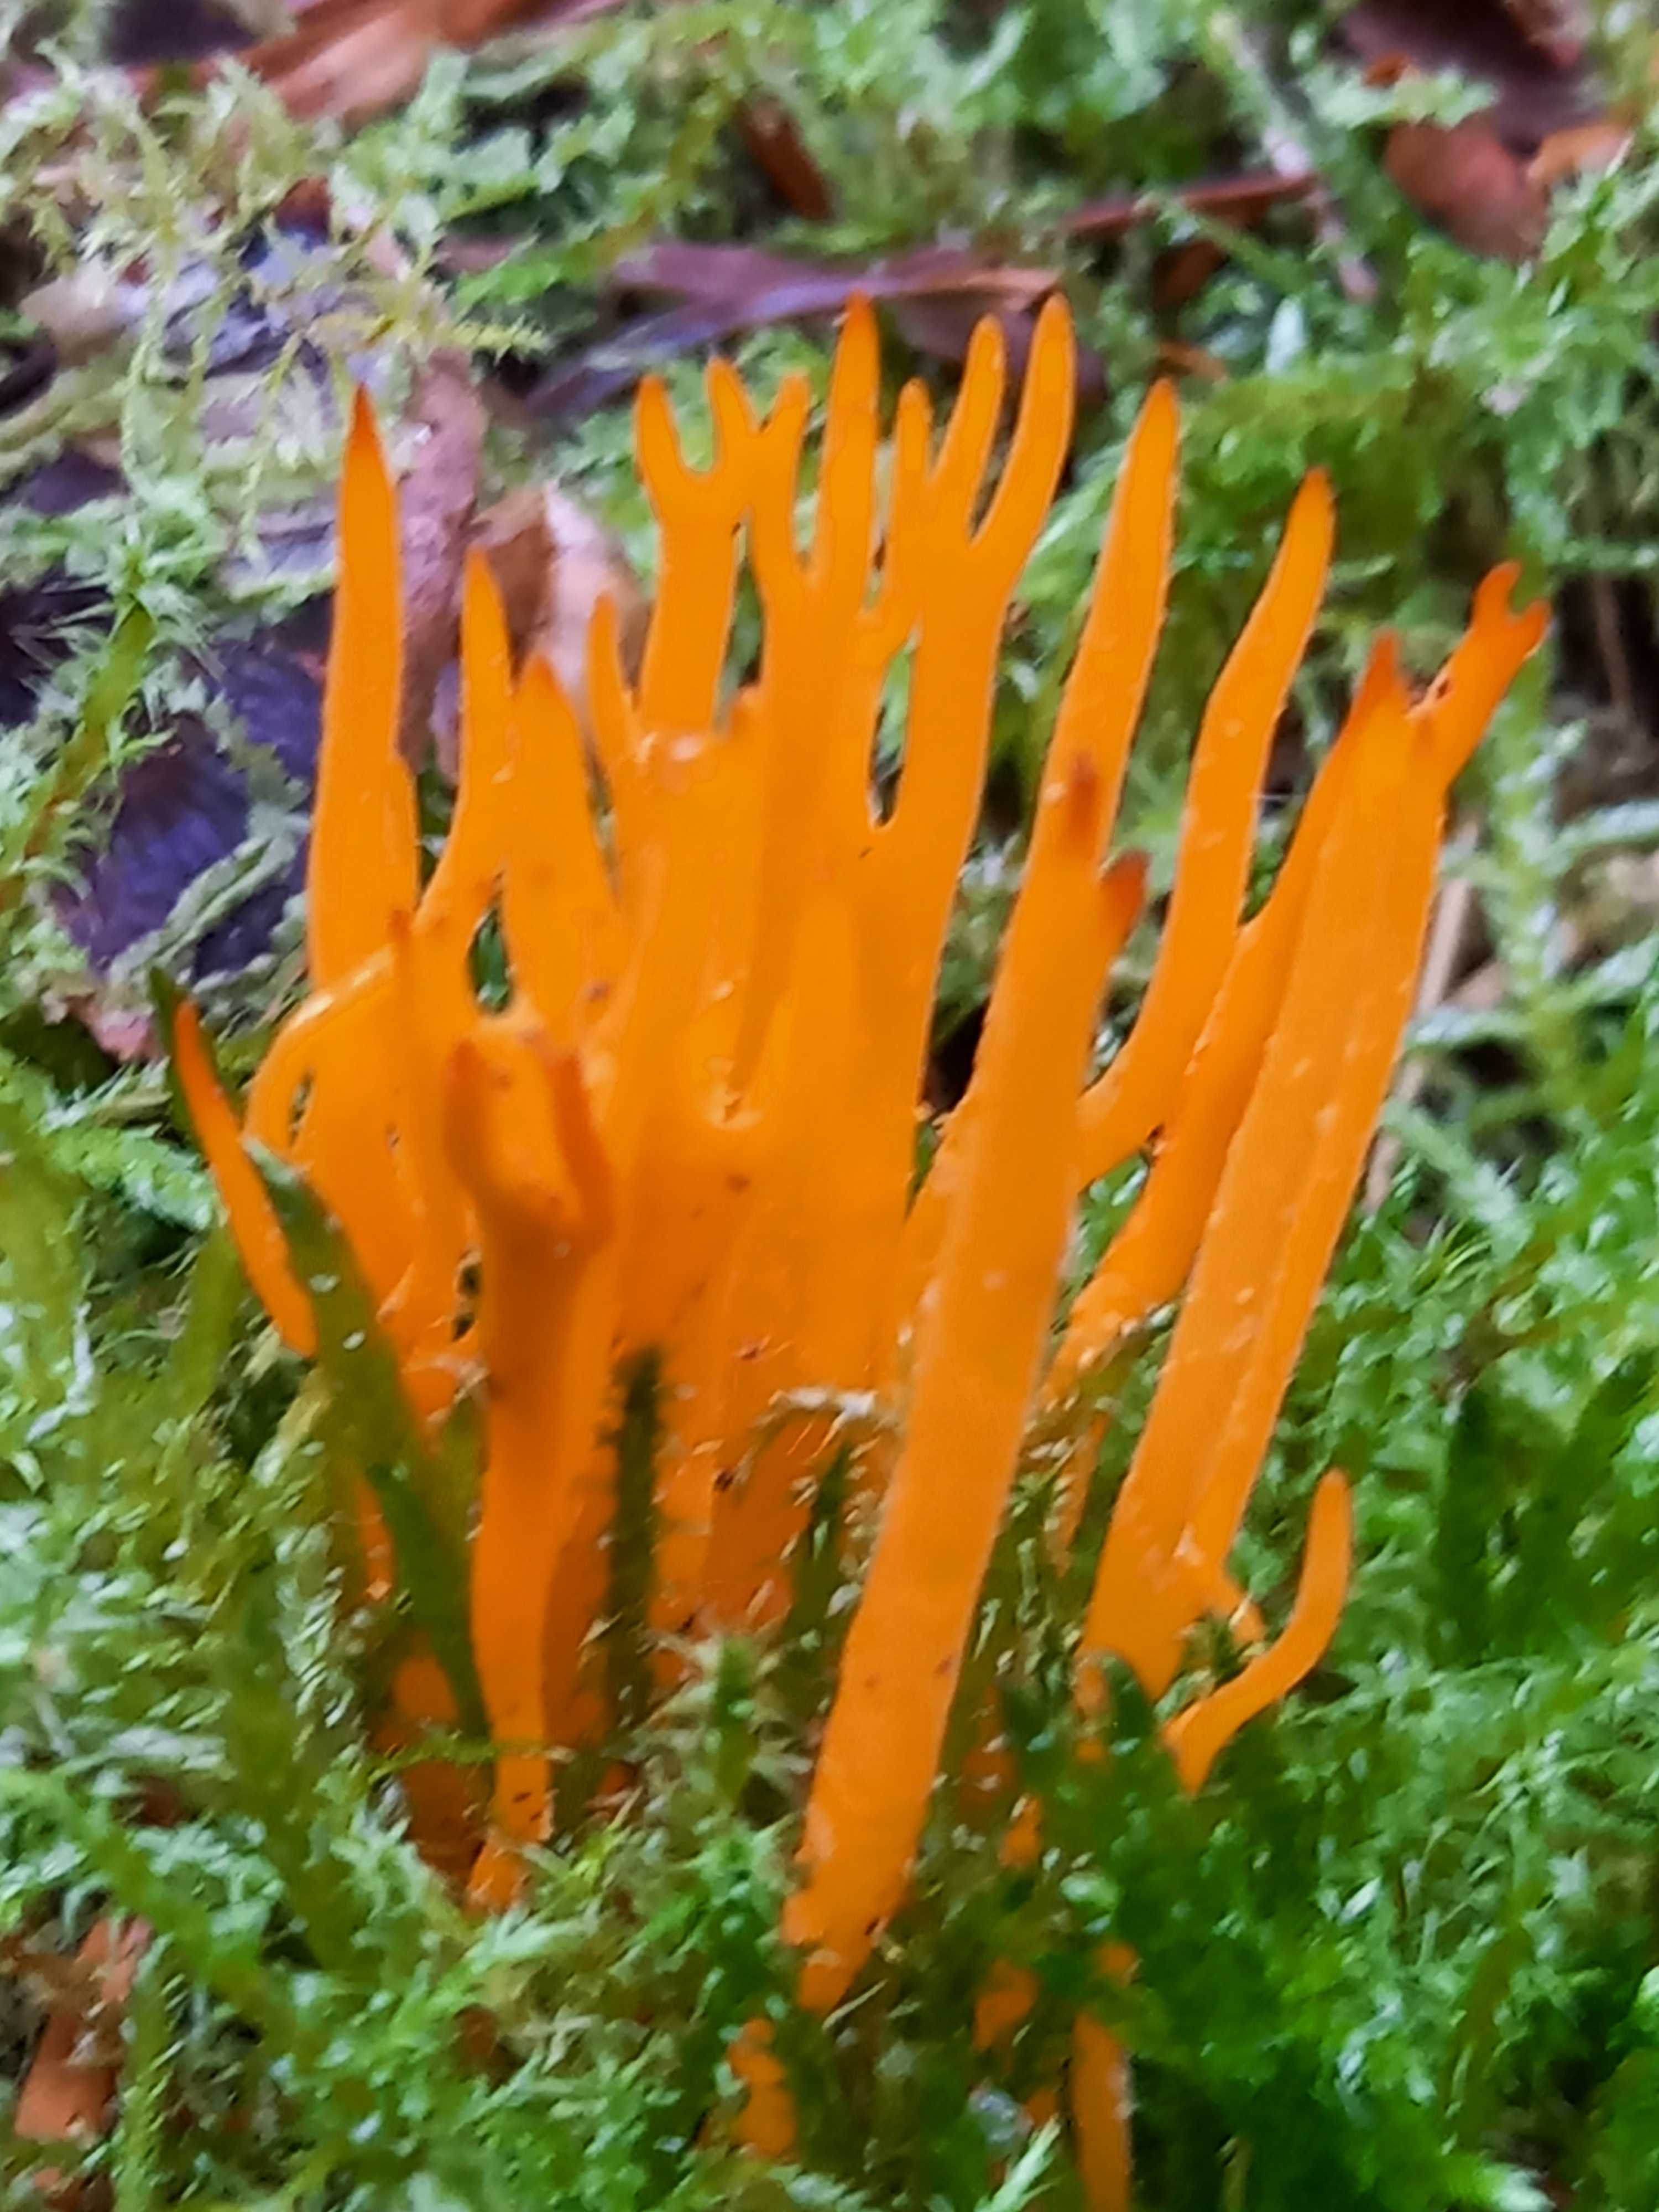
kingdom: Fungi
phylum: Basidiomycota
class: Dacrymycetes
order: Dacrymycetales
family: Dacrymycetaceae
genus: Calocera
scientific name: Calocera viscosa
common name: almindelig guldgaffel
